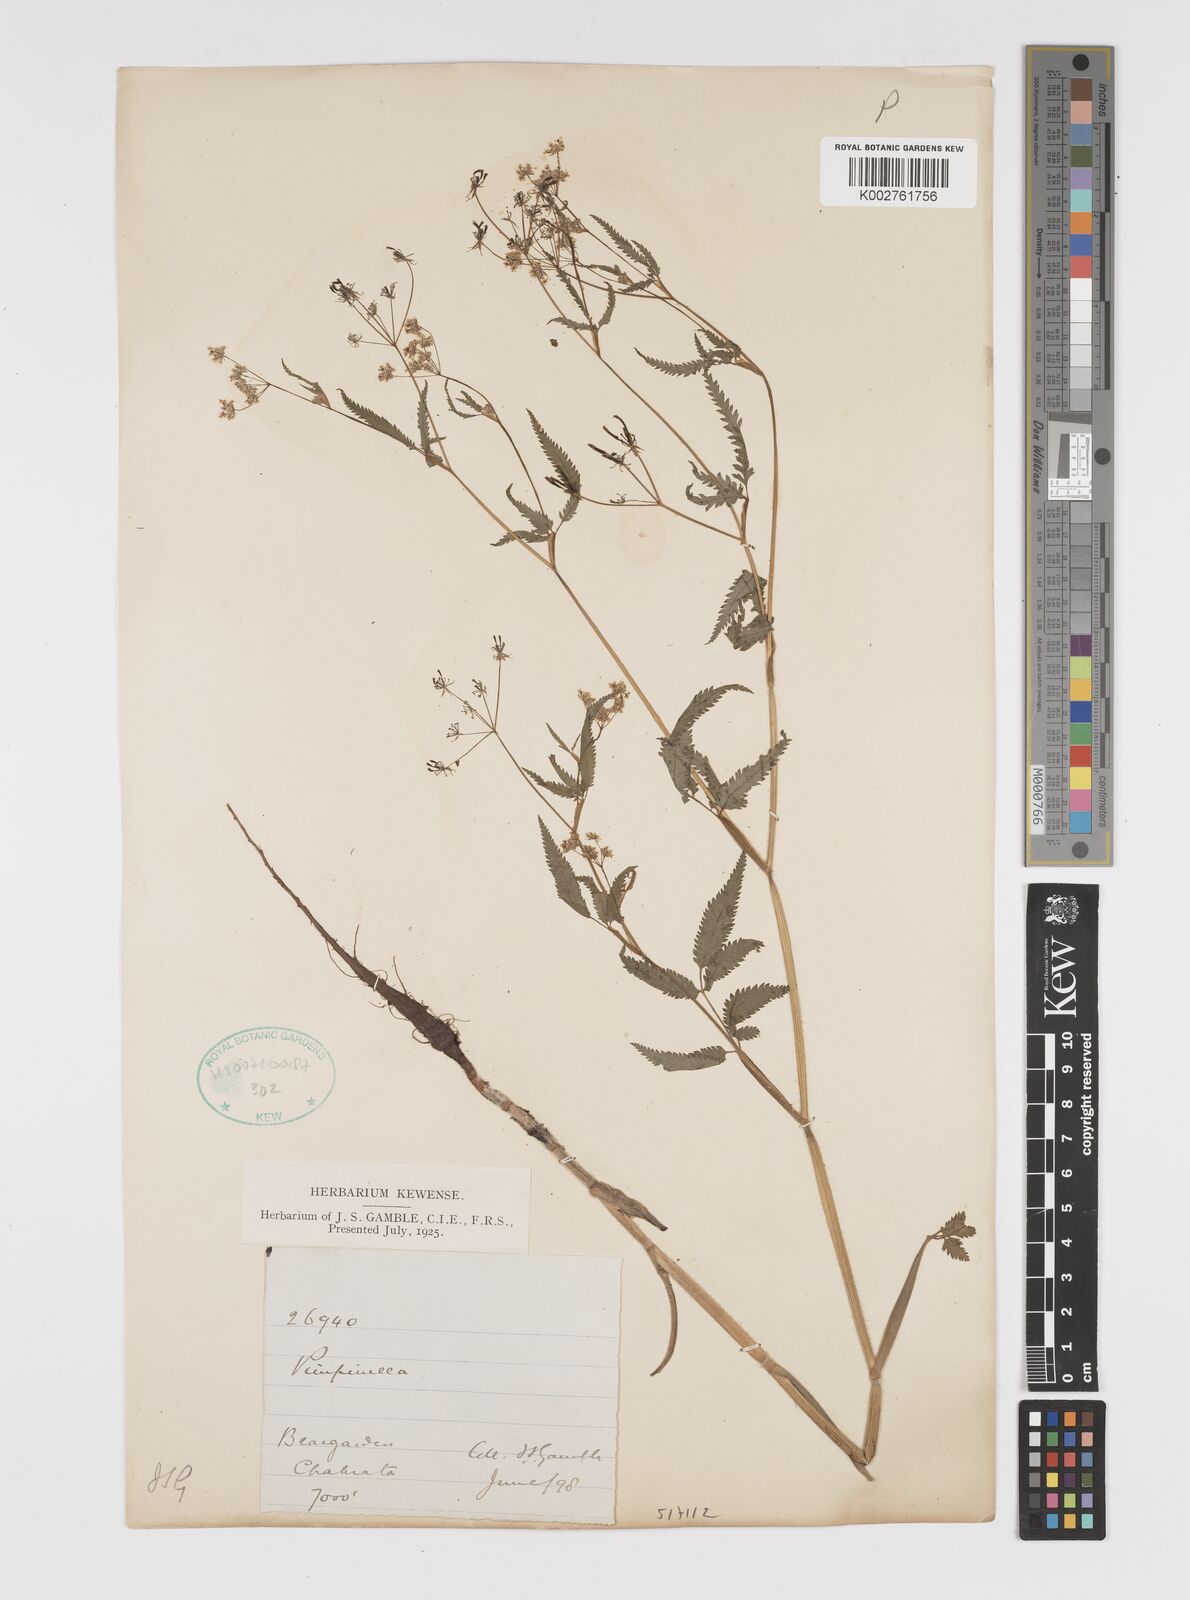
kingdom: Plantae
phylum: Tracheophyta
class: Magnoliopsida
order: Apiales
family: Apiaceae
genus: Chaerophyllum
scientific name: Chaerophyllum reflexum
